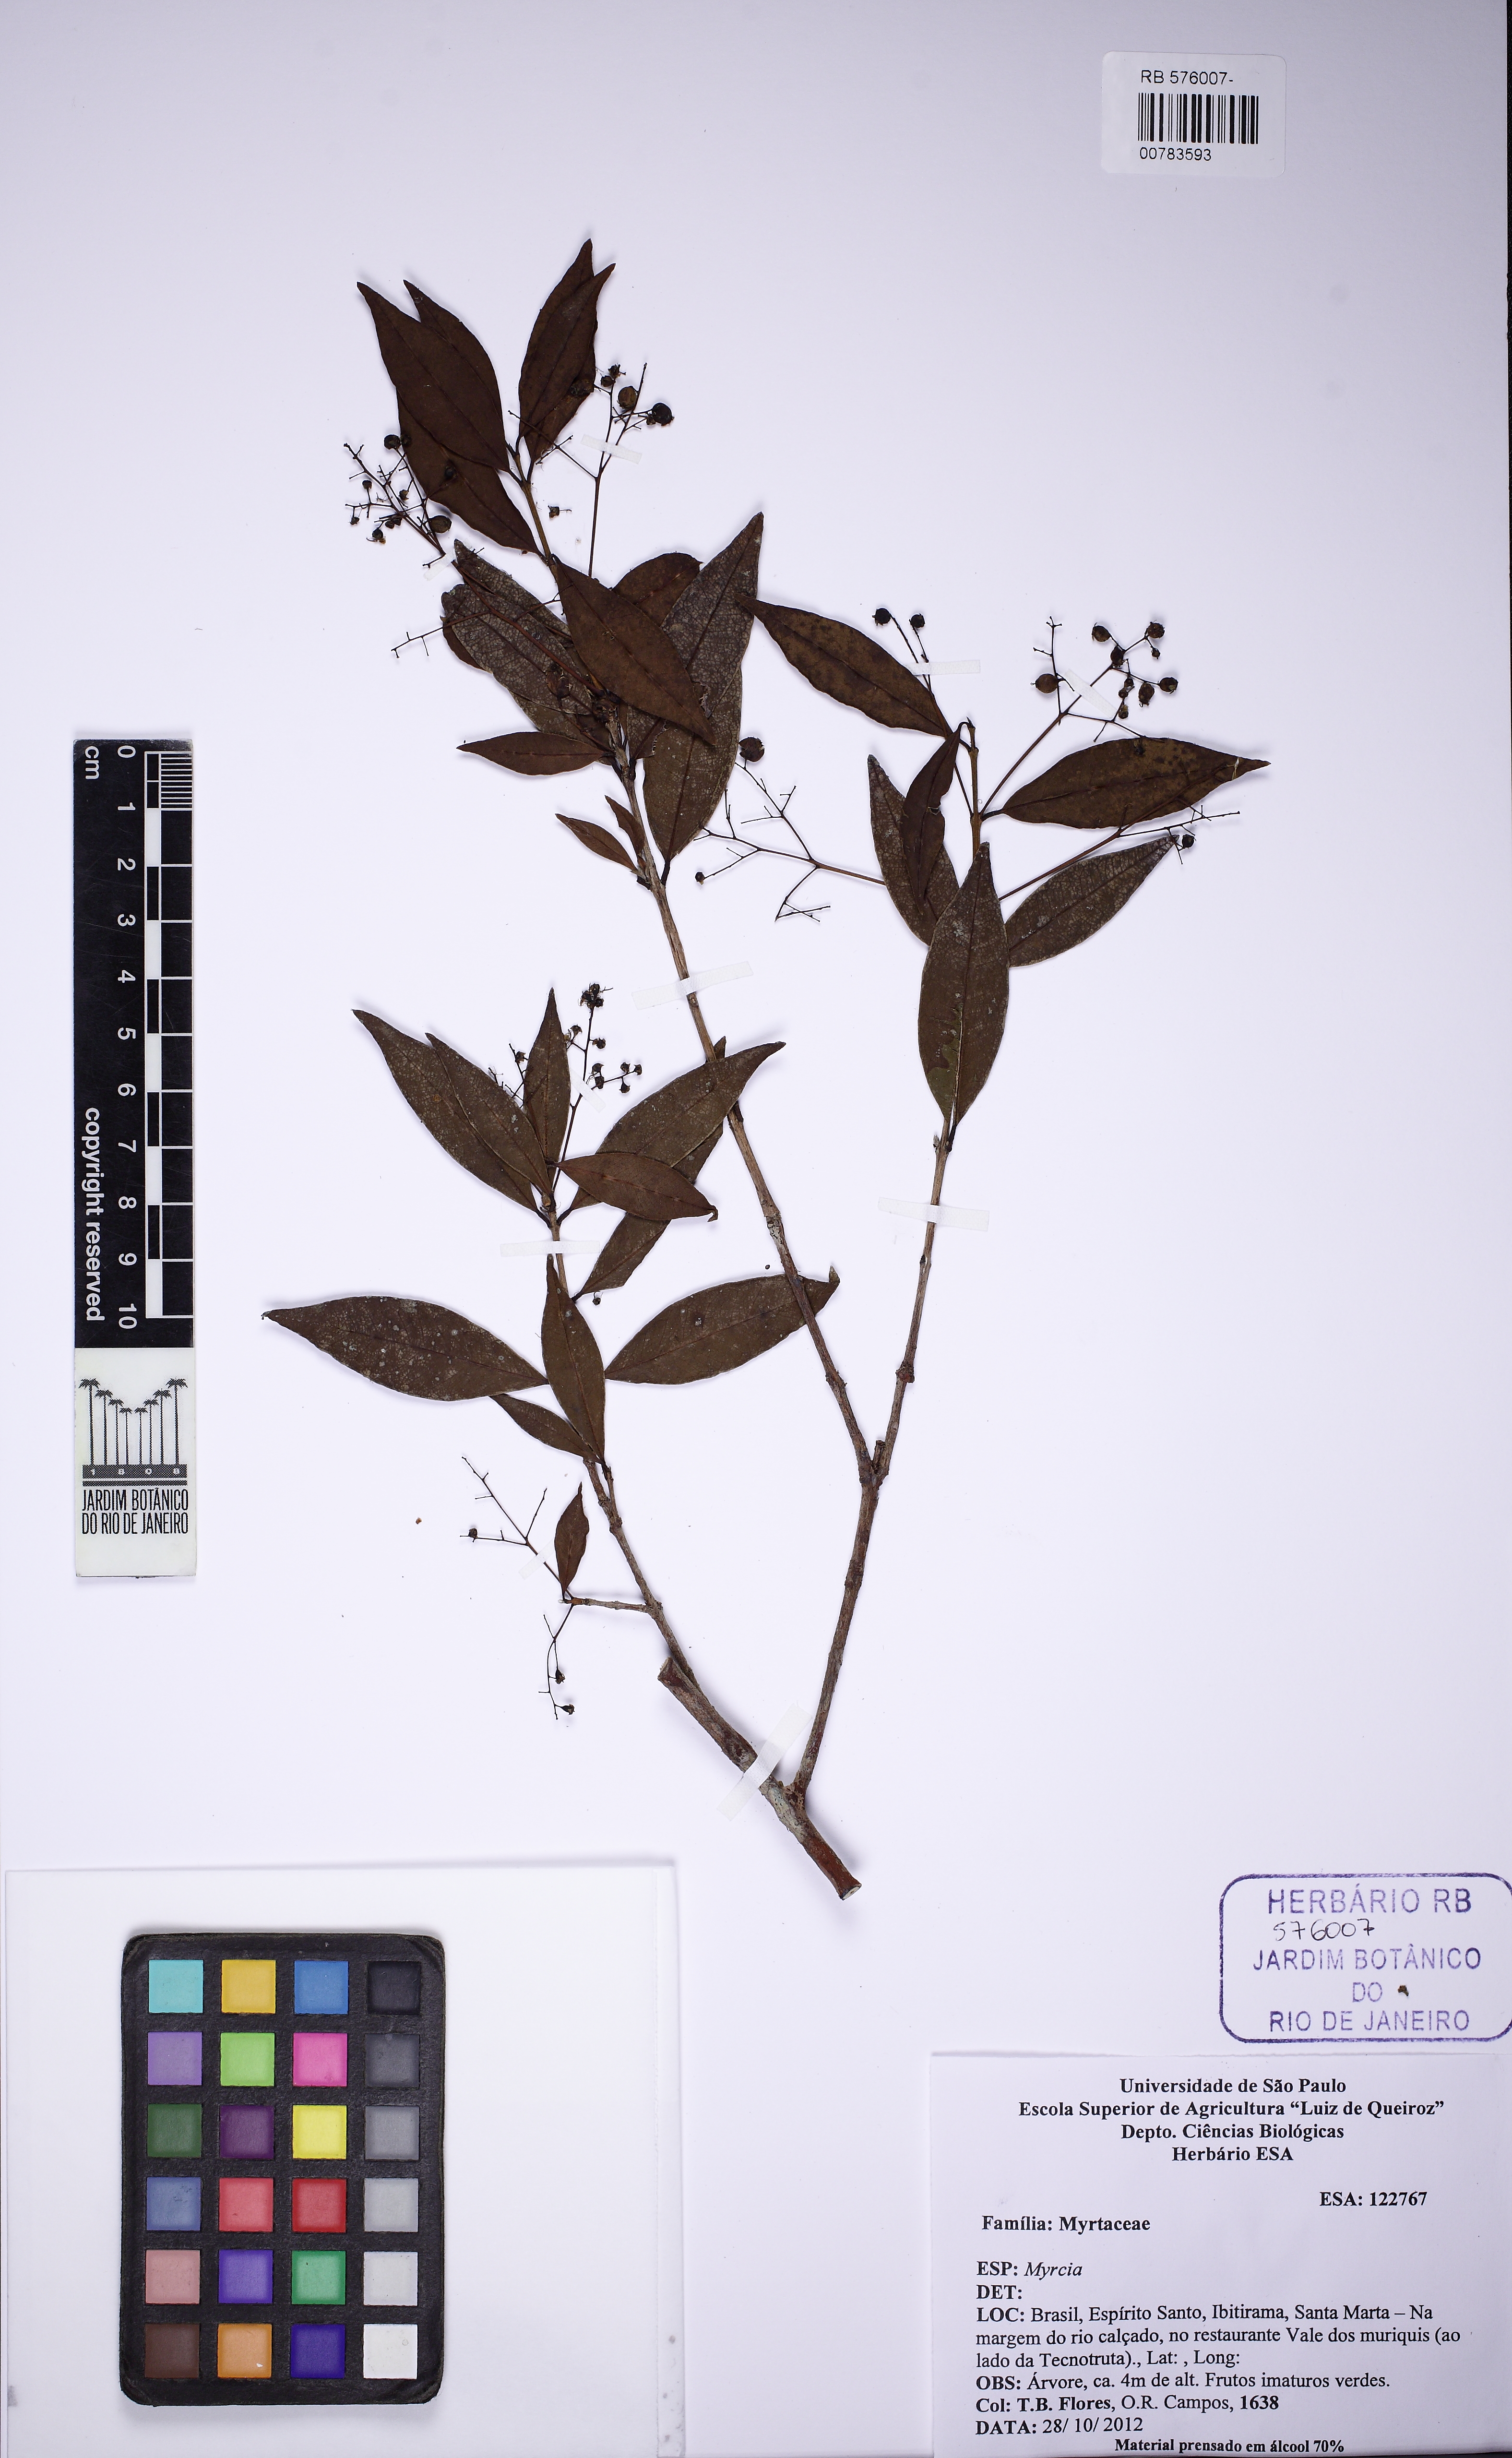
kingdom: Plantae
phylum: Tracheophyta
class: Magnoliopsida
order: Myrtales
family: Myrtaceae
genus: Myrcia
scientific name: Myrcia laruotteana
